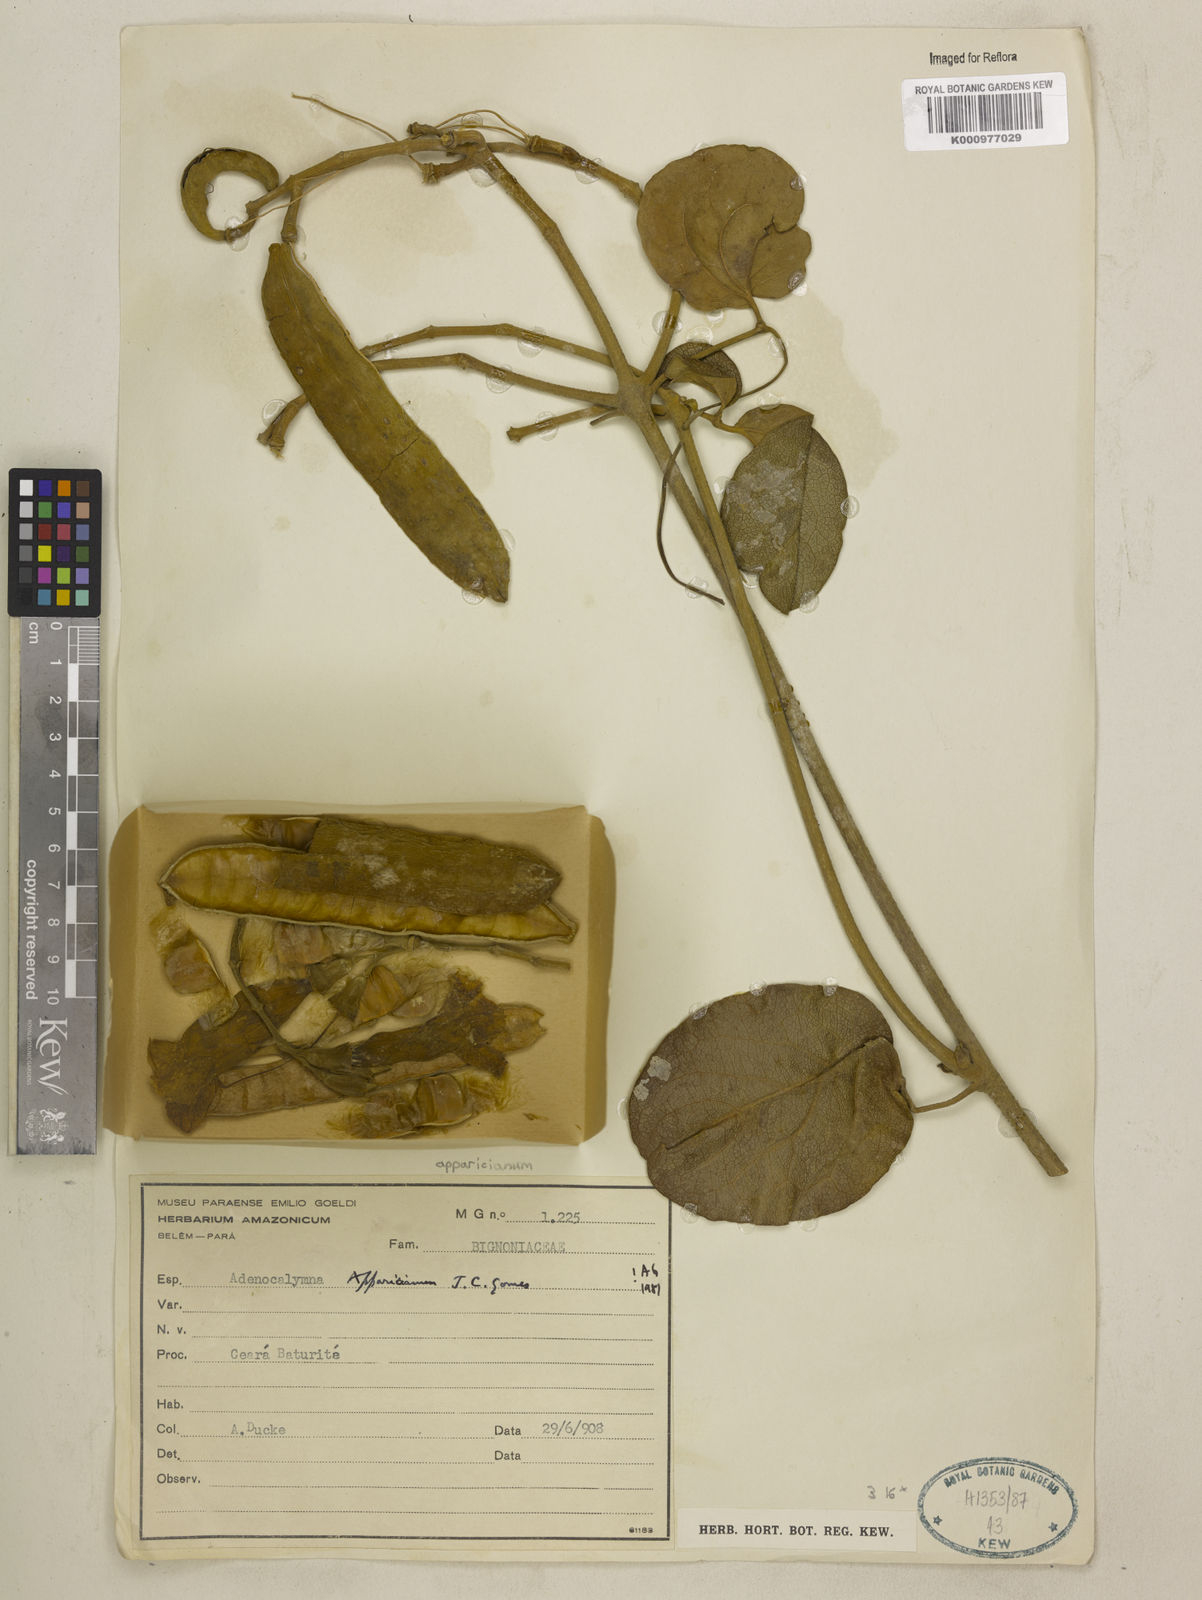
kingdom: Plantae
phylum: Tracheophyta
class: Magnoliopsida
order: Lamiales
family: Bignoniaceae
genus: Adenocalymma
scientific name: Adenocalymma apparicianum
